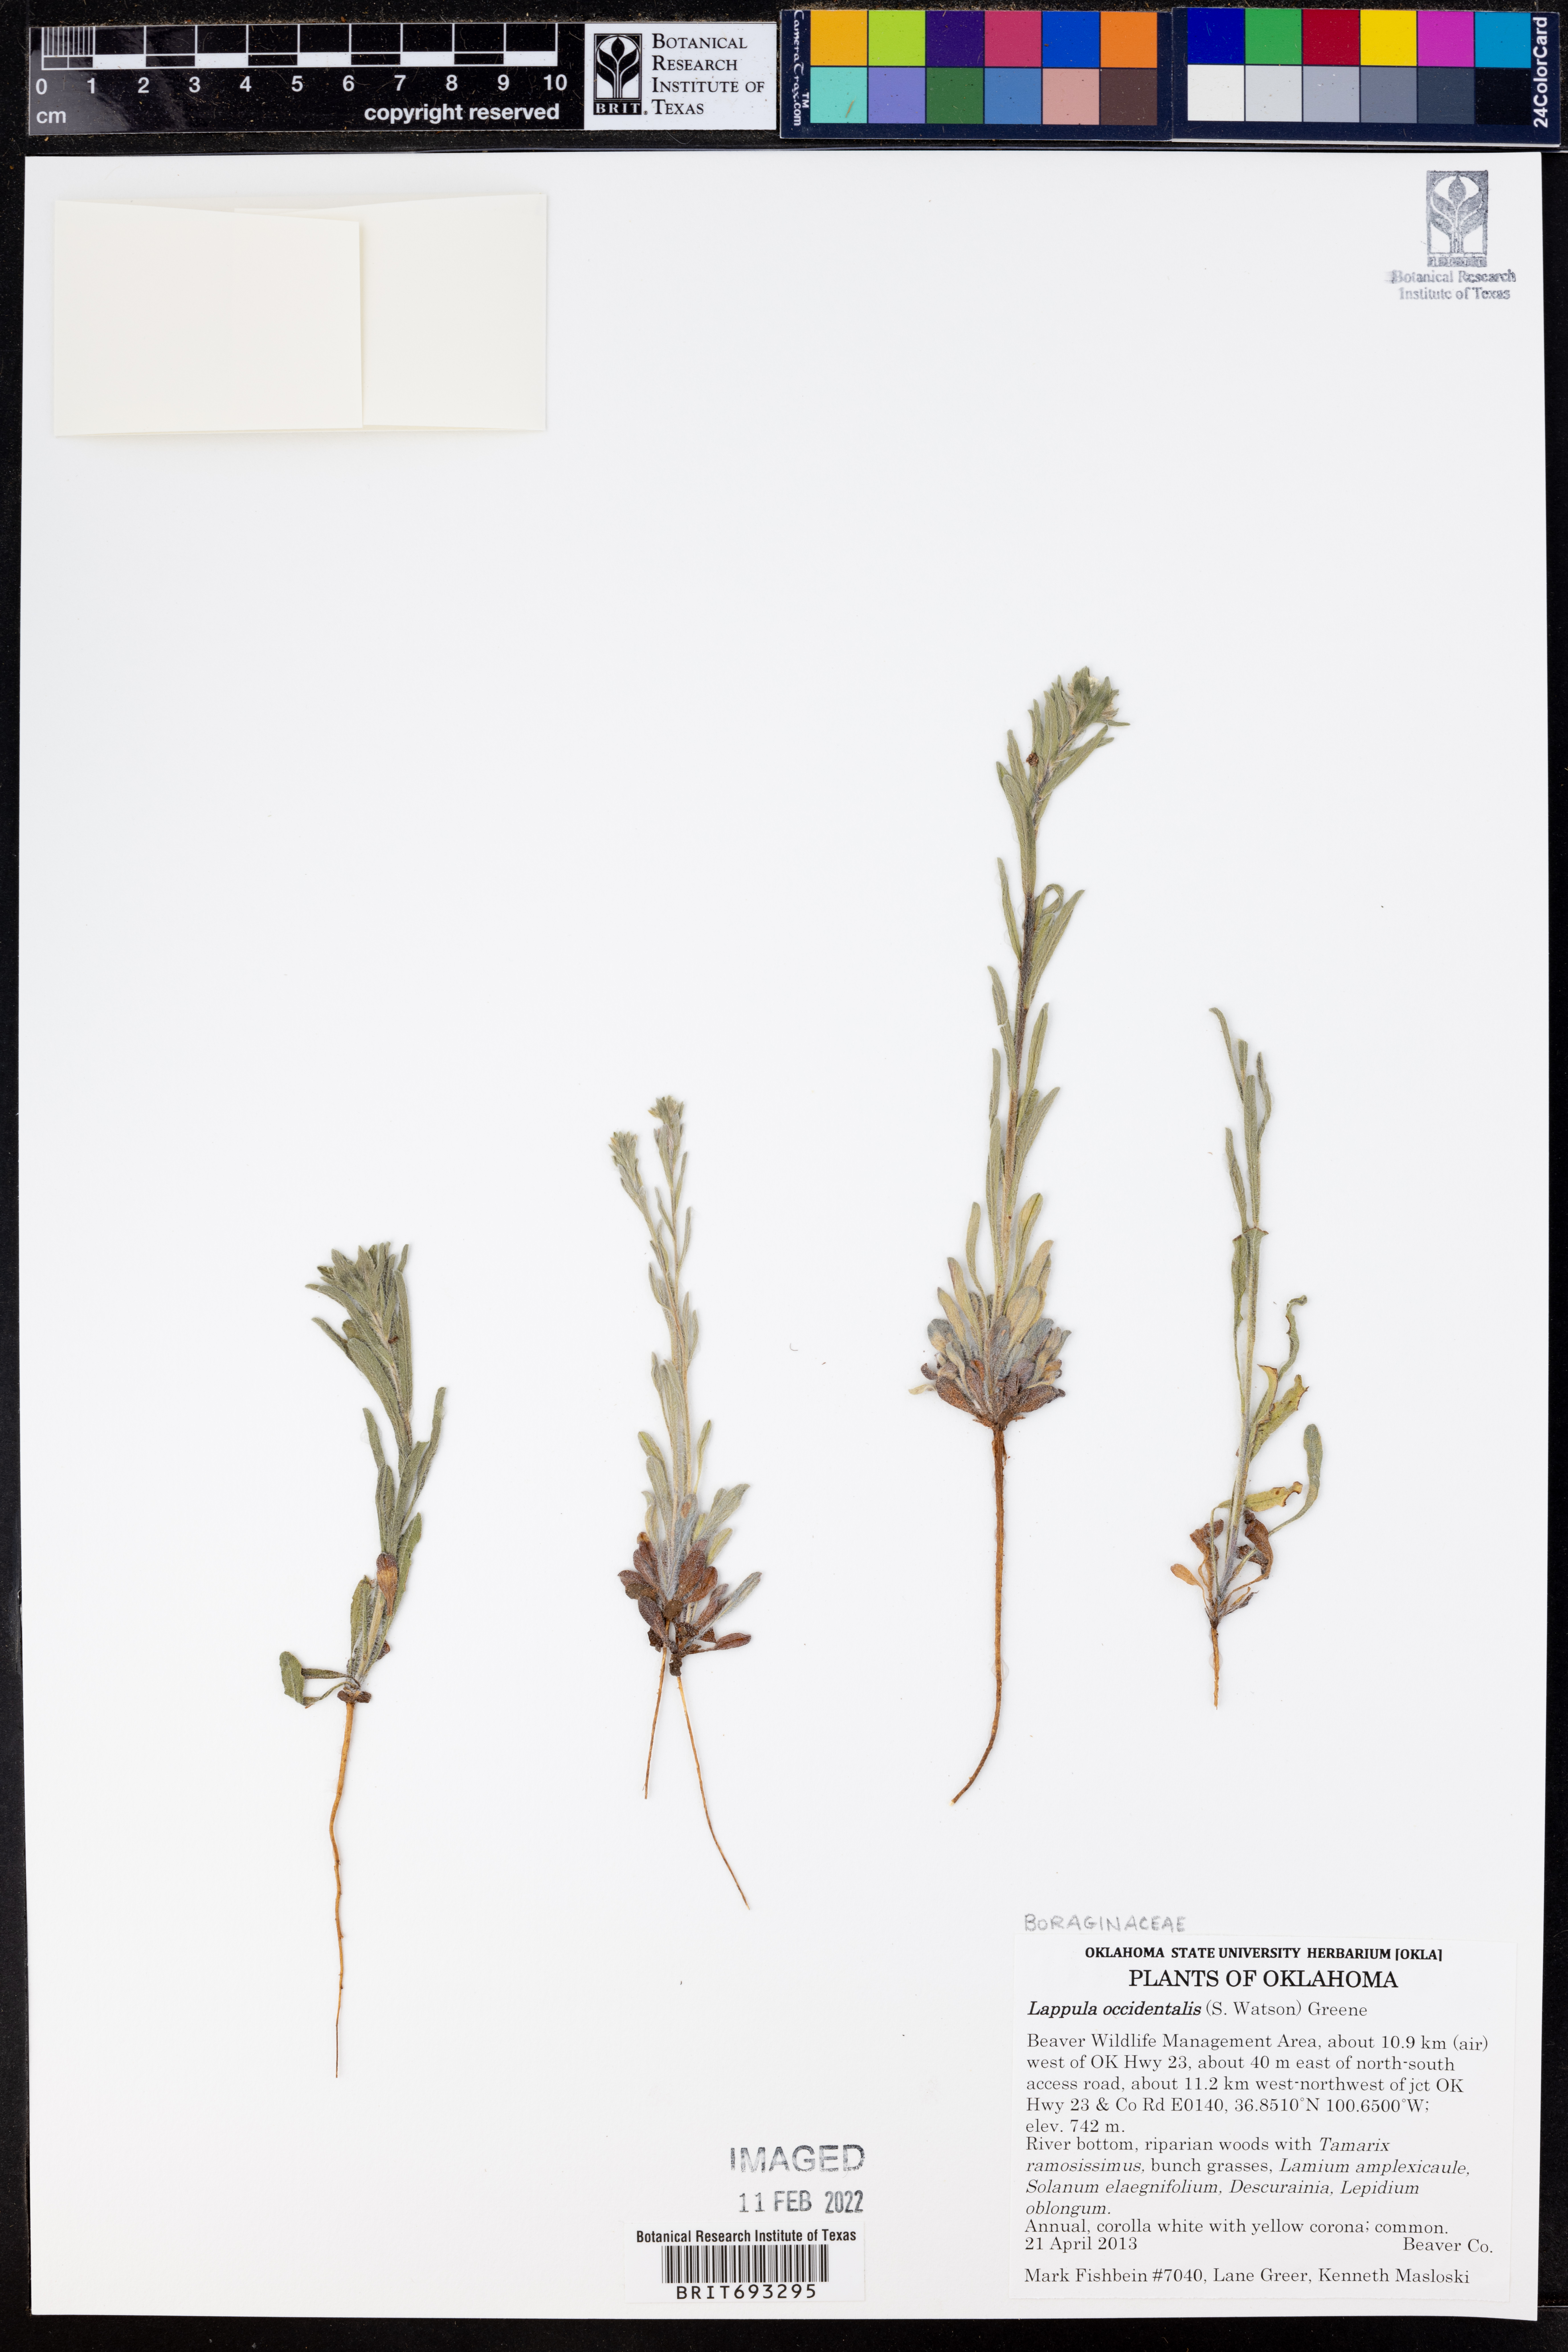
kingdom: Plantae
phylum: Tracheophyta
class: Magnoliopsida
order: Boraginales
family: Boraginaceae
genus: Lappula
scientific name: Lappula occidentalis
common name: Western stickseed
